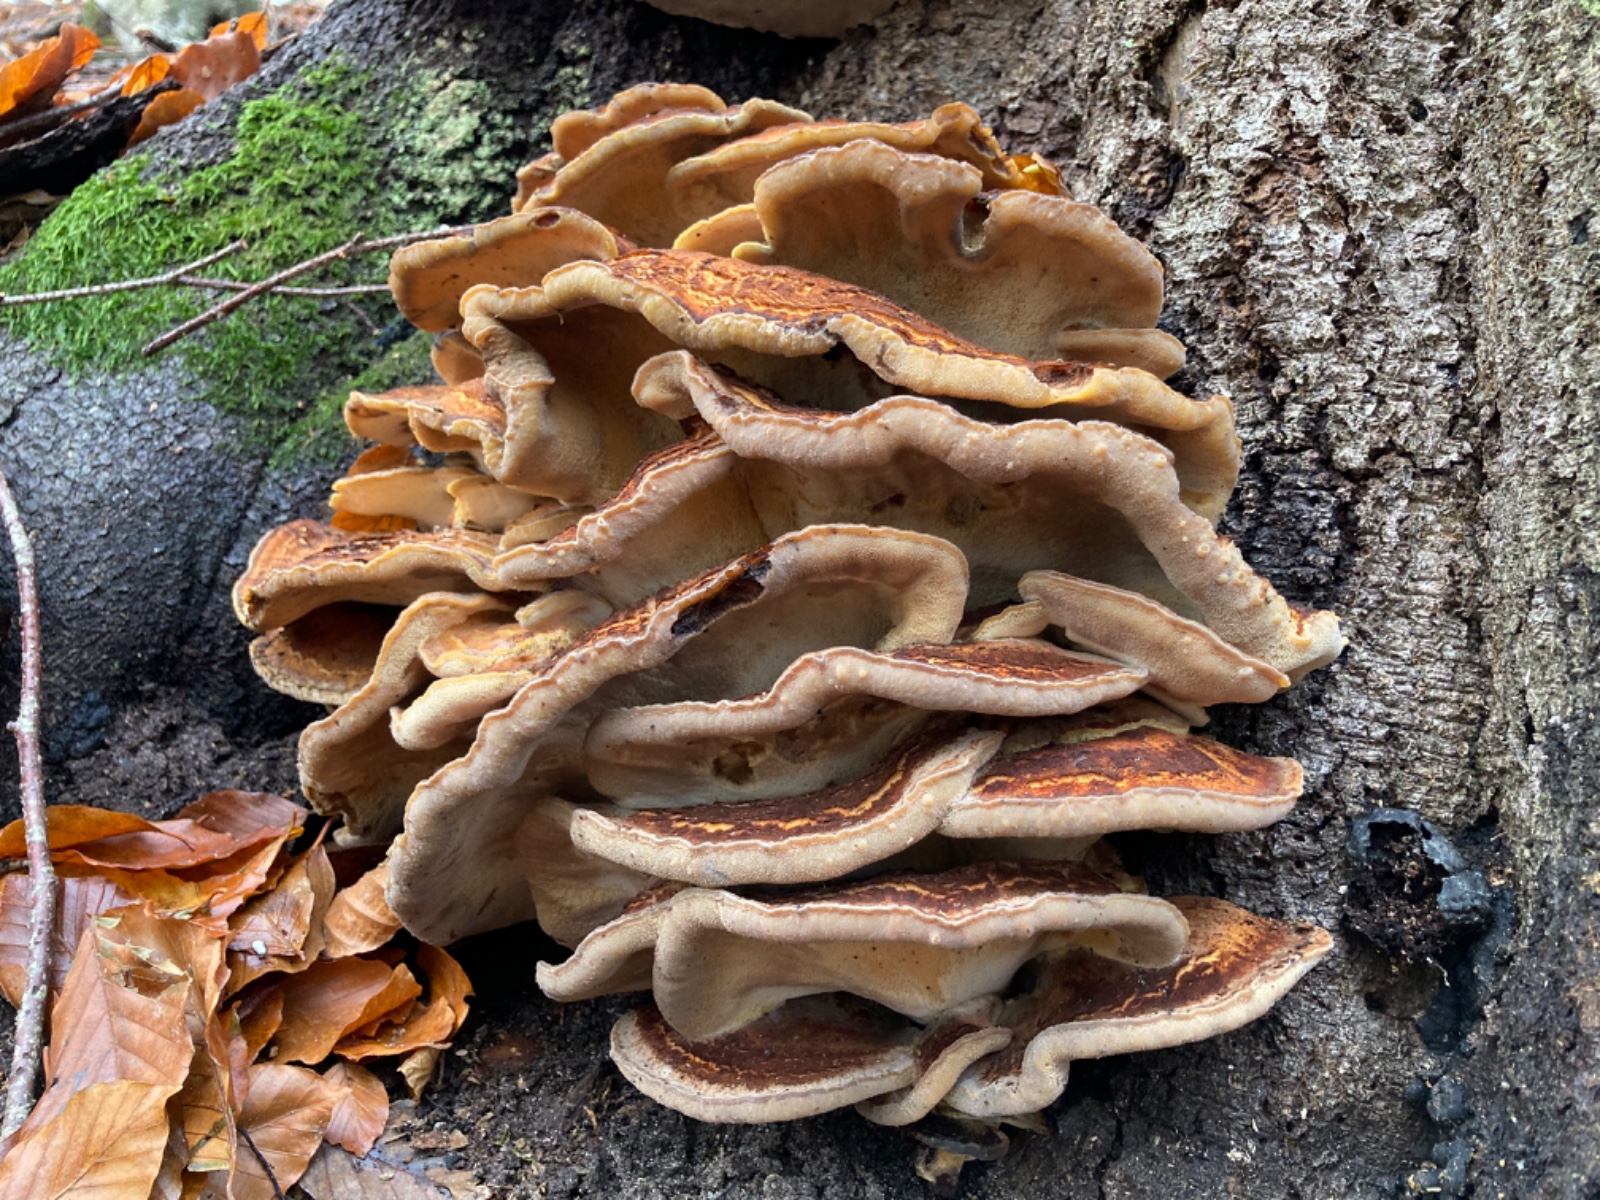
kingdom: Fungi
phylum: Basidiomycota
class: Agaricomycetes
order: Polyporales
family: Meripilaceae
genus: Meripilus
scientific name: Meripilus giganteus
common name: kæmpeporesvamp
